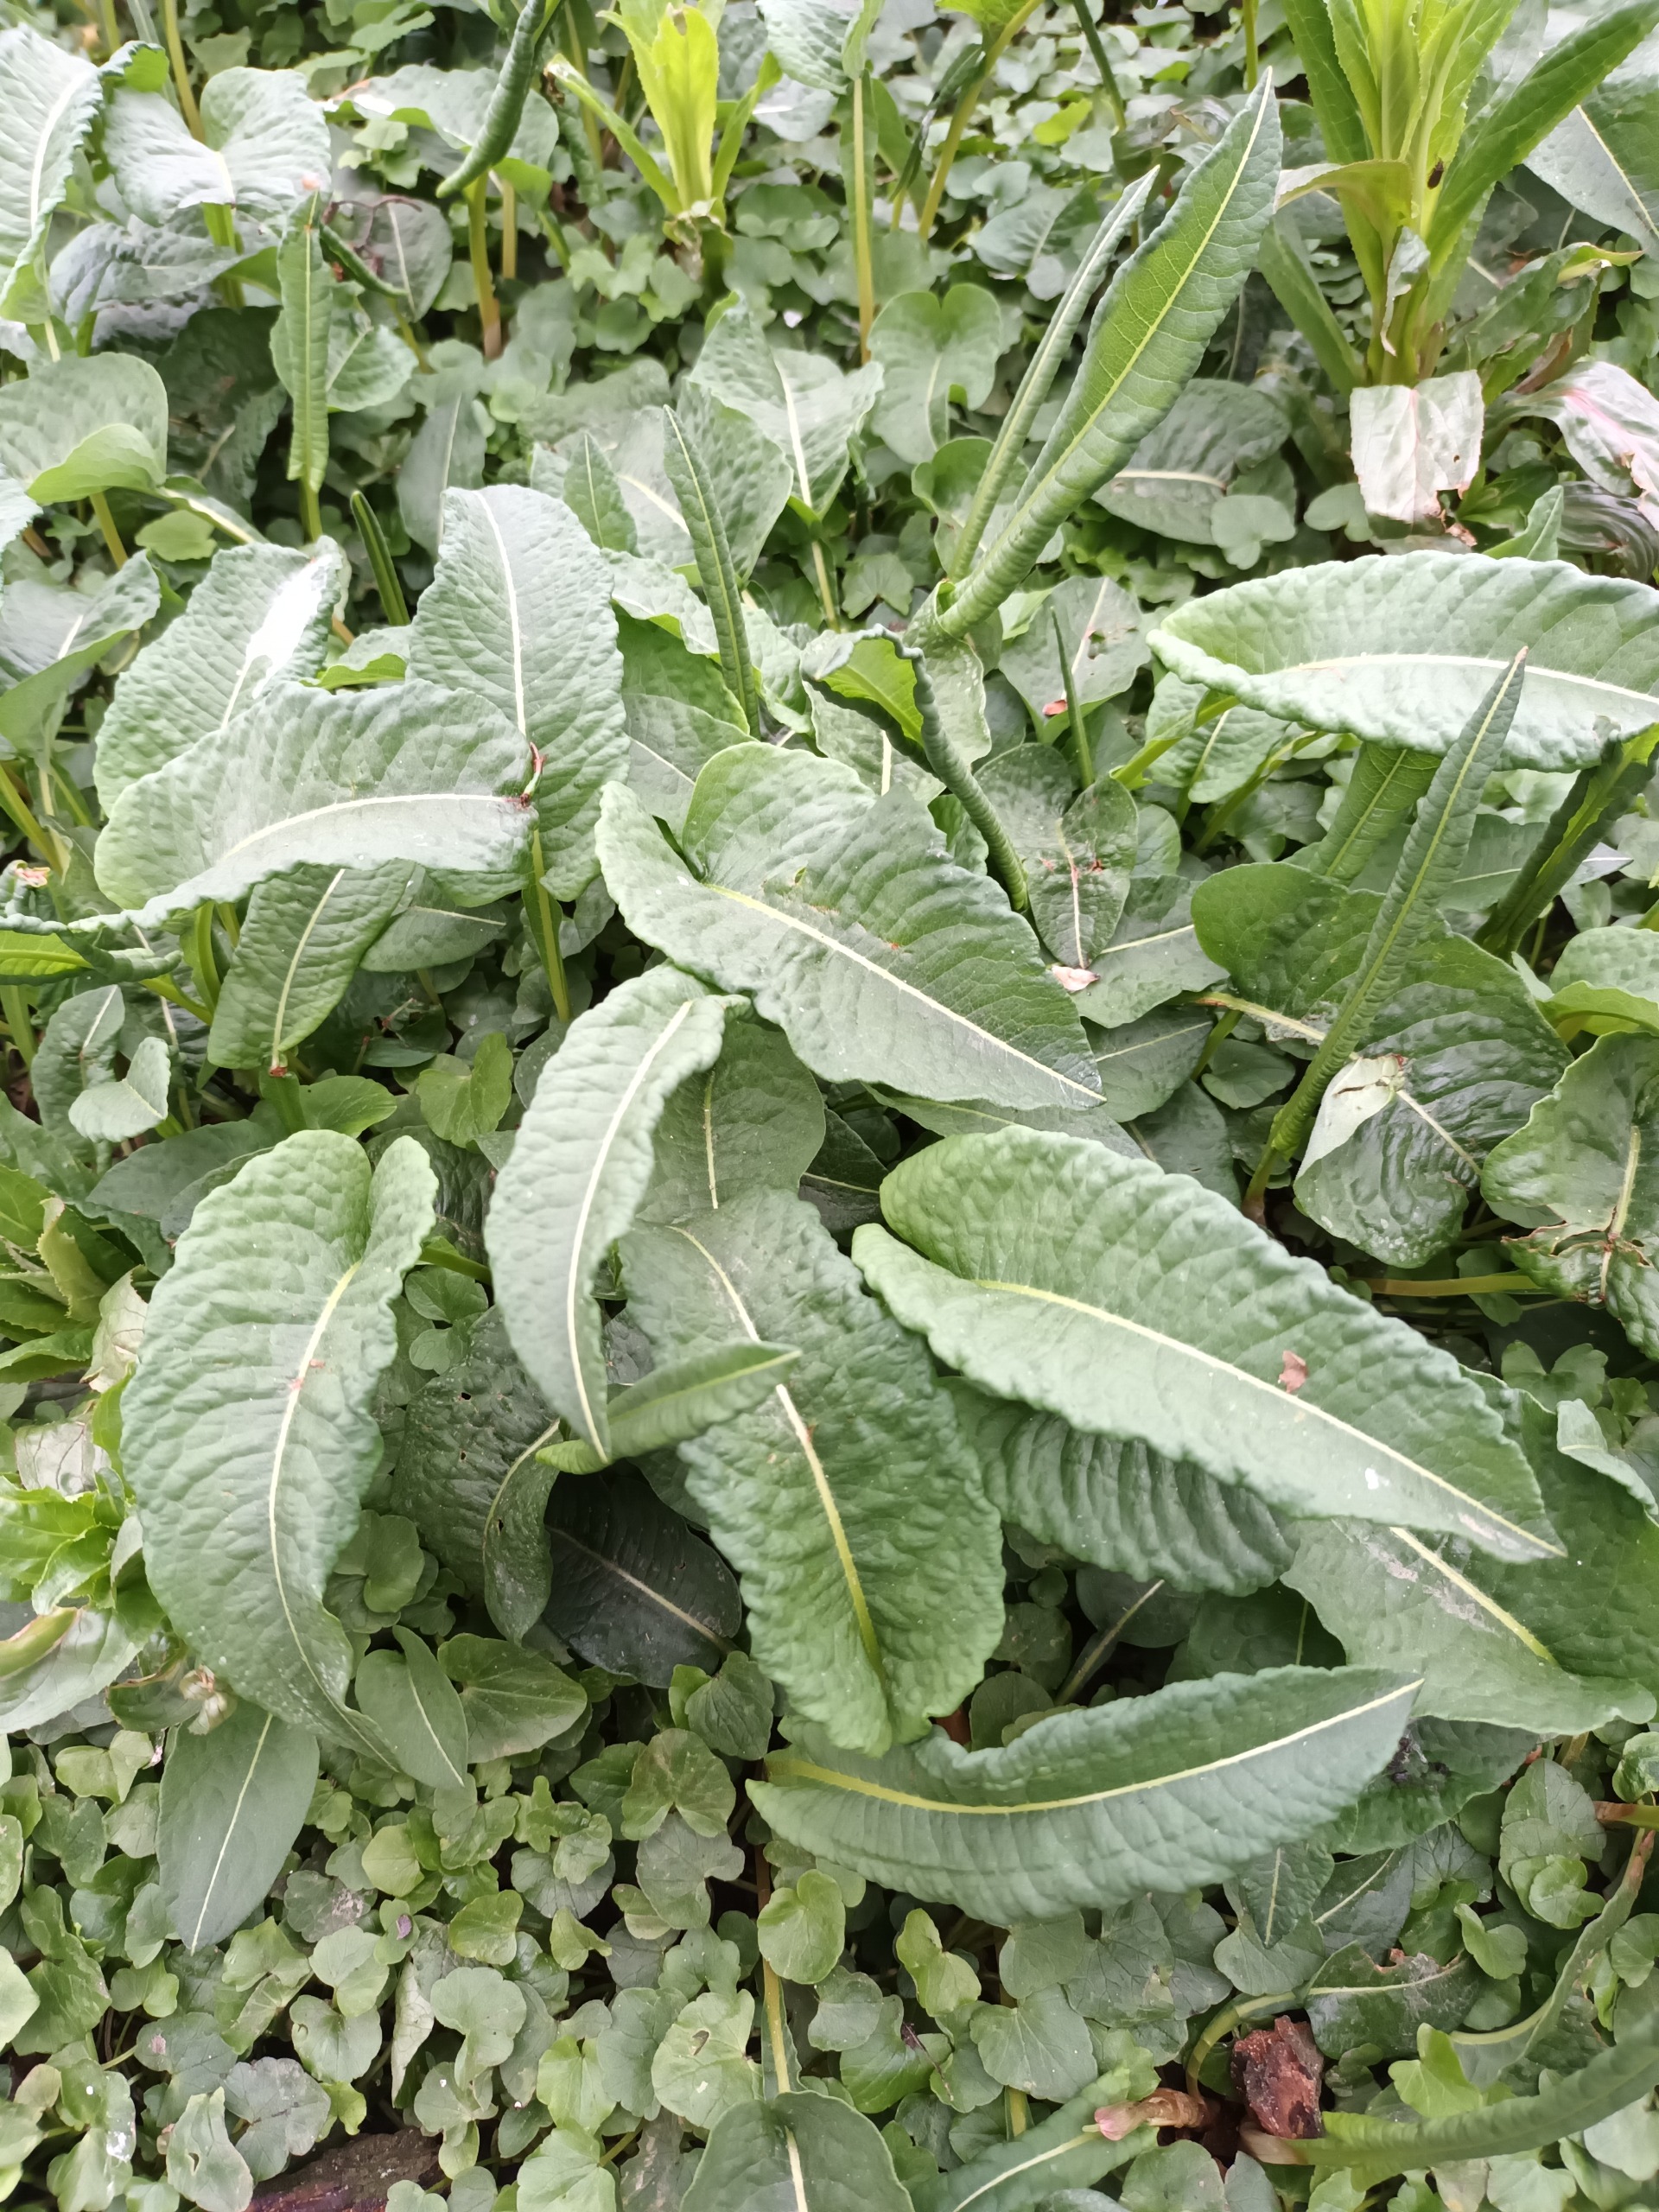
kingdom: Plantae
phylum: Tracheophyta
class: Magnoliopsida
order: Caryophyllales
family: Polygonaceae
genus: Bistorta
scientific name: Bistorta officinalis
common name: Slangeurt
